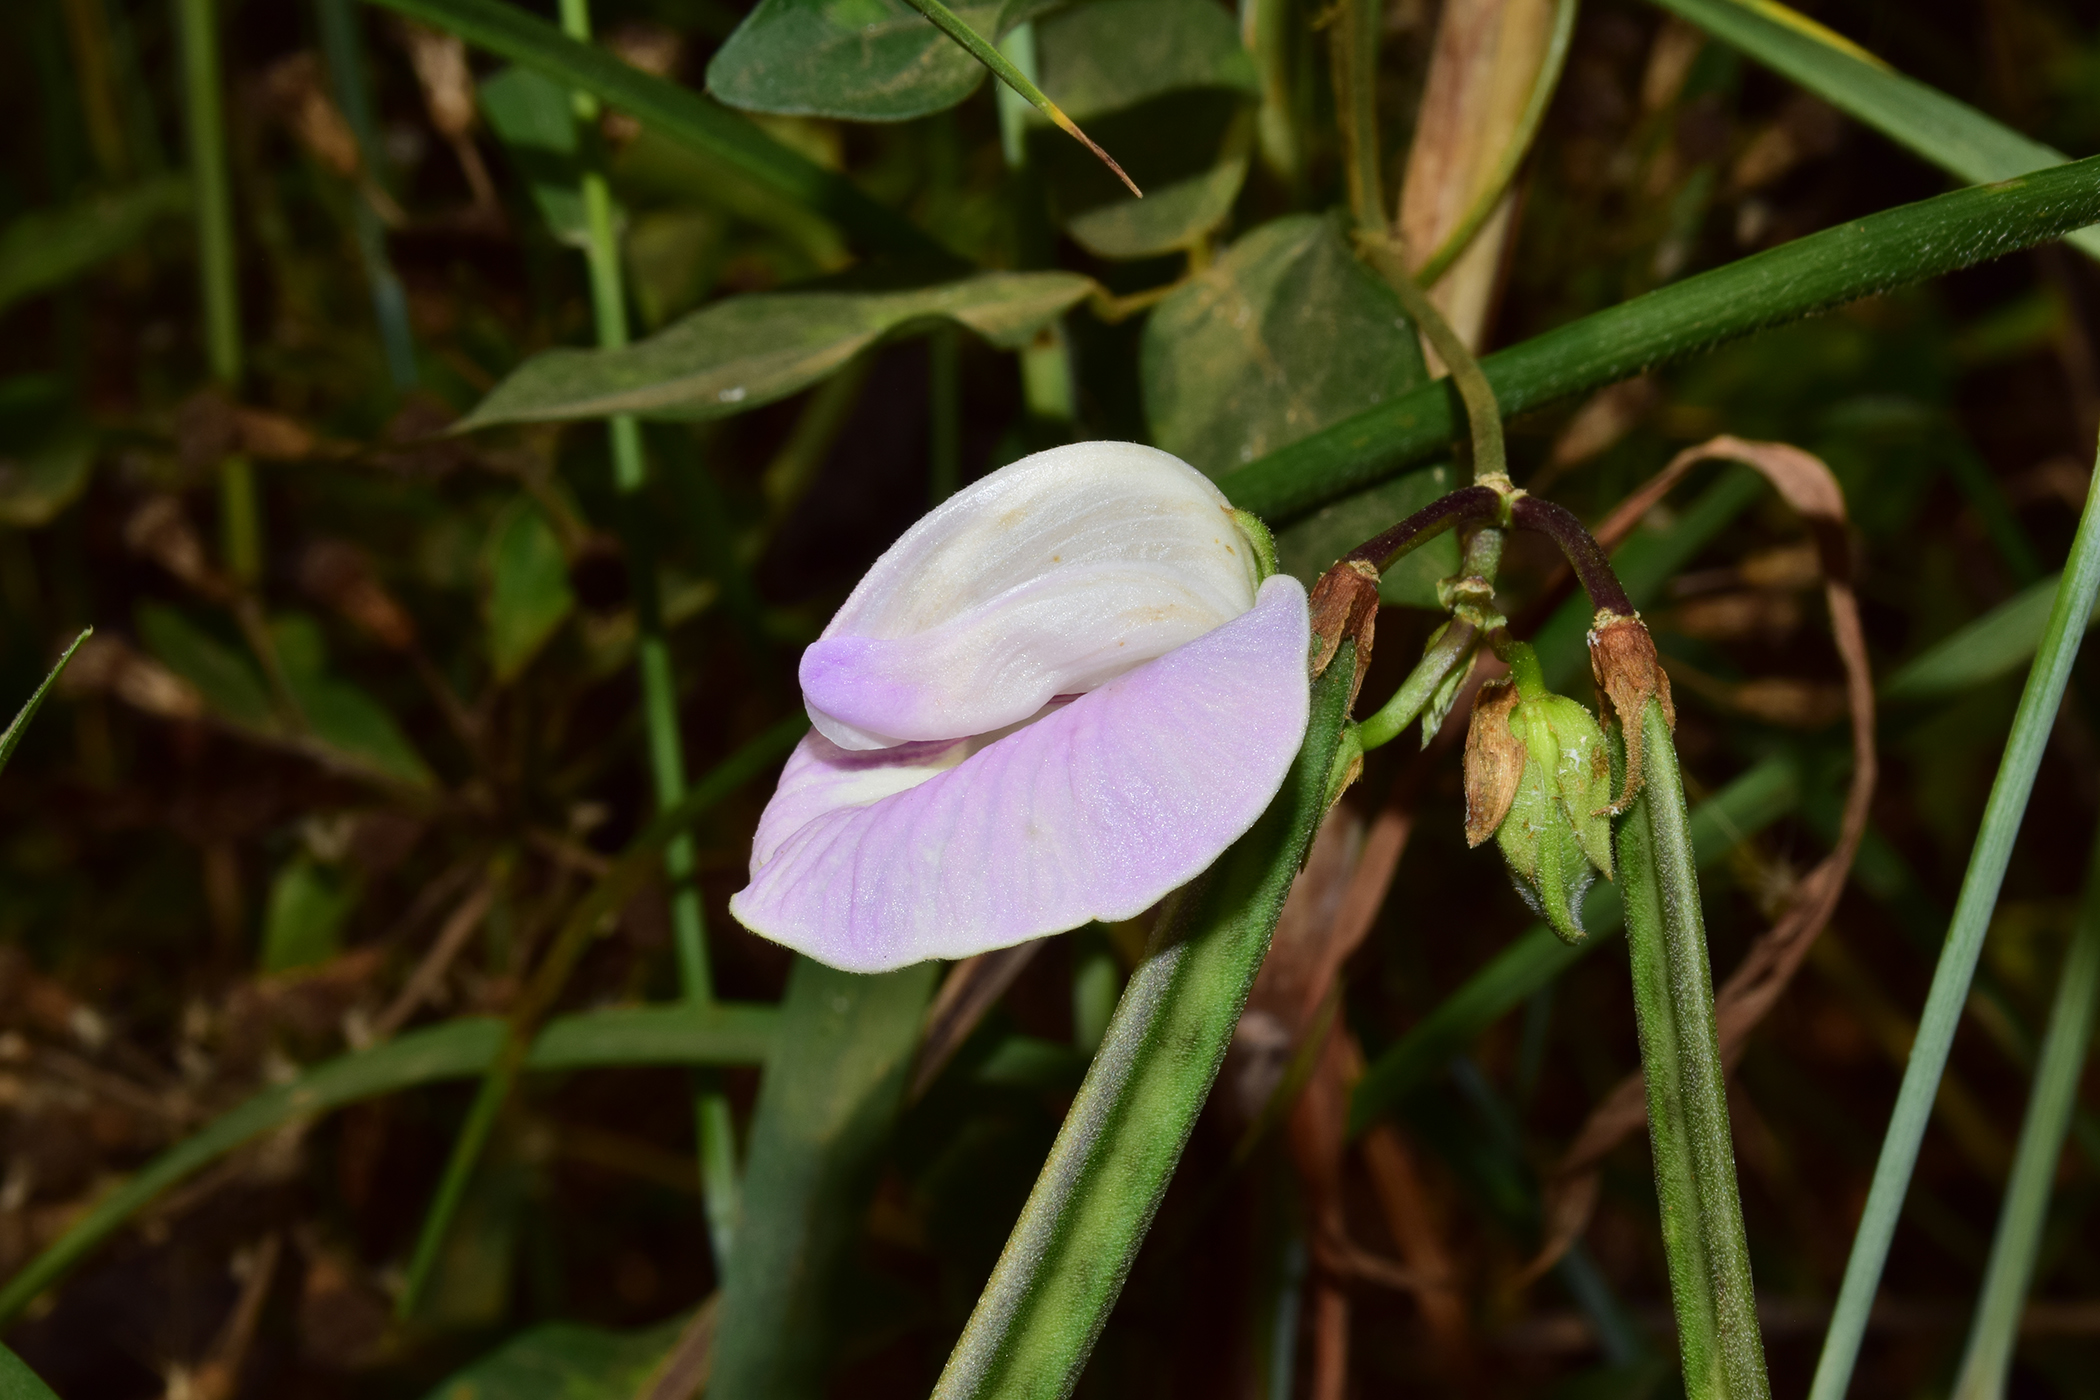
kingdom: Plantae
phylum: Tracheophyta
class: Magnoliopsida
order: Fabales
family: Fabaceae
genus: Centrosema
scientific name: Centrosema pubescens
